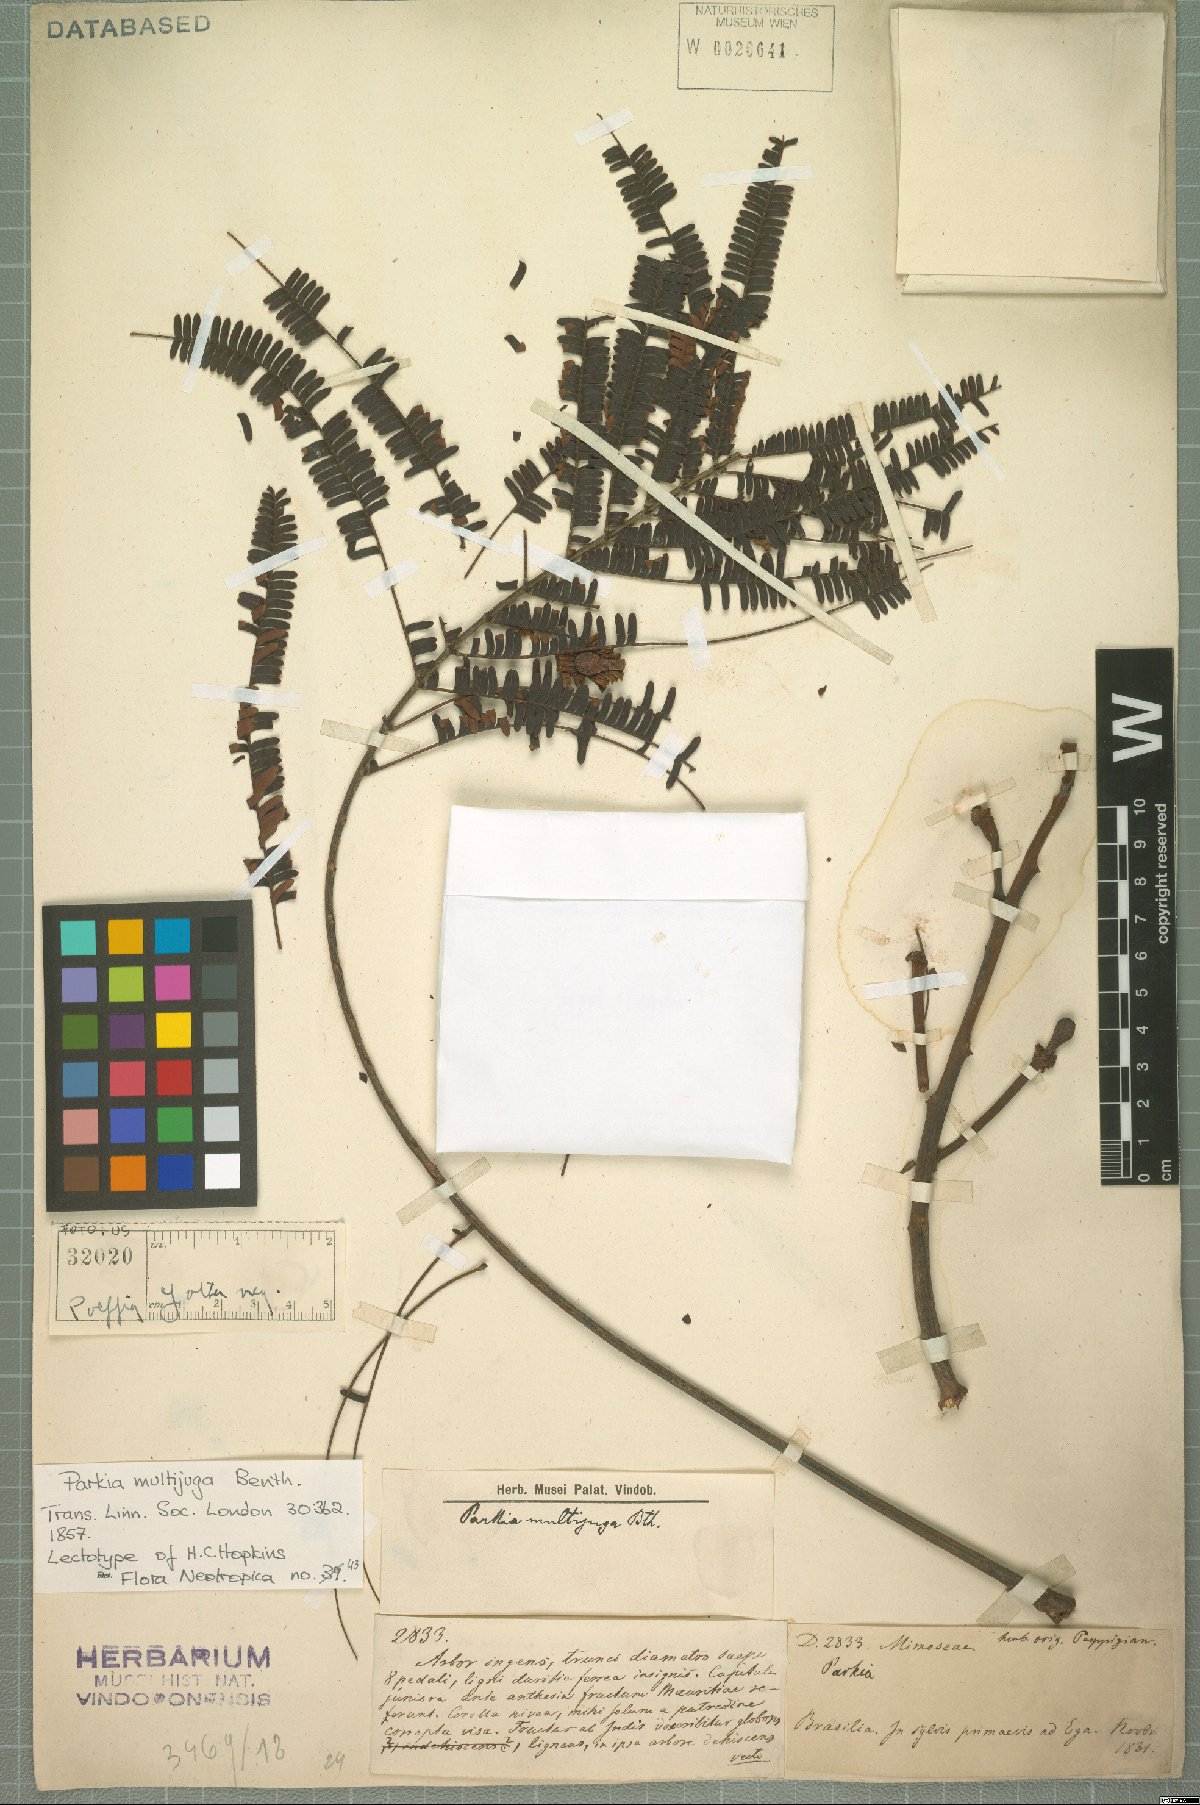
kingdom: Plantae
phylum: Tracheophyta
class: Magnoliopsida
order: Fabales
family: Fabaceae
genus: Parkia
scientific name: Parkia multijuga
